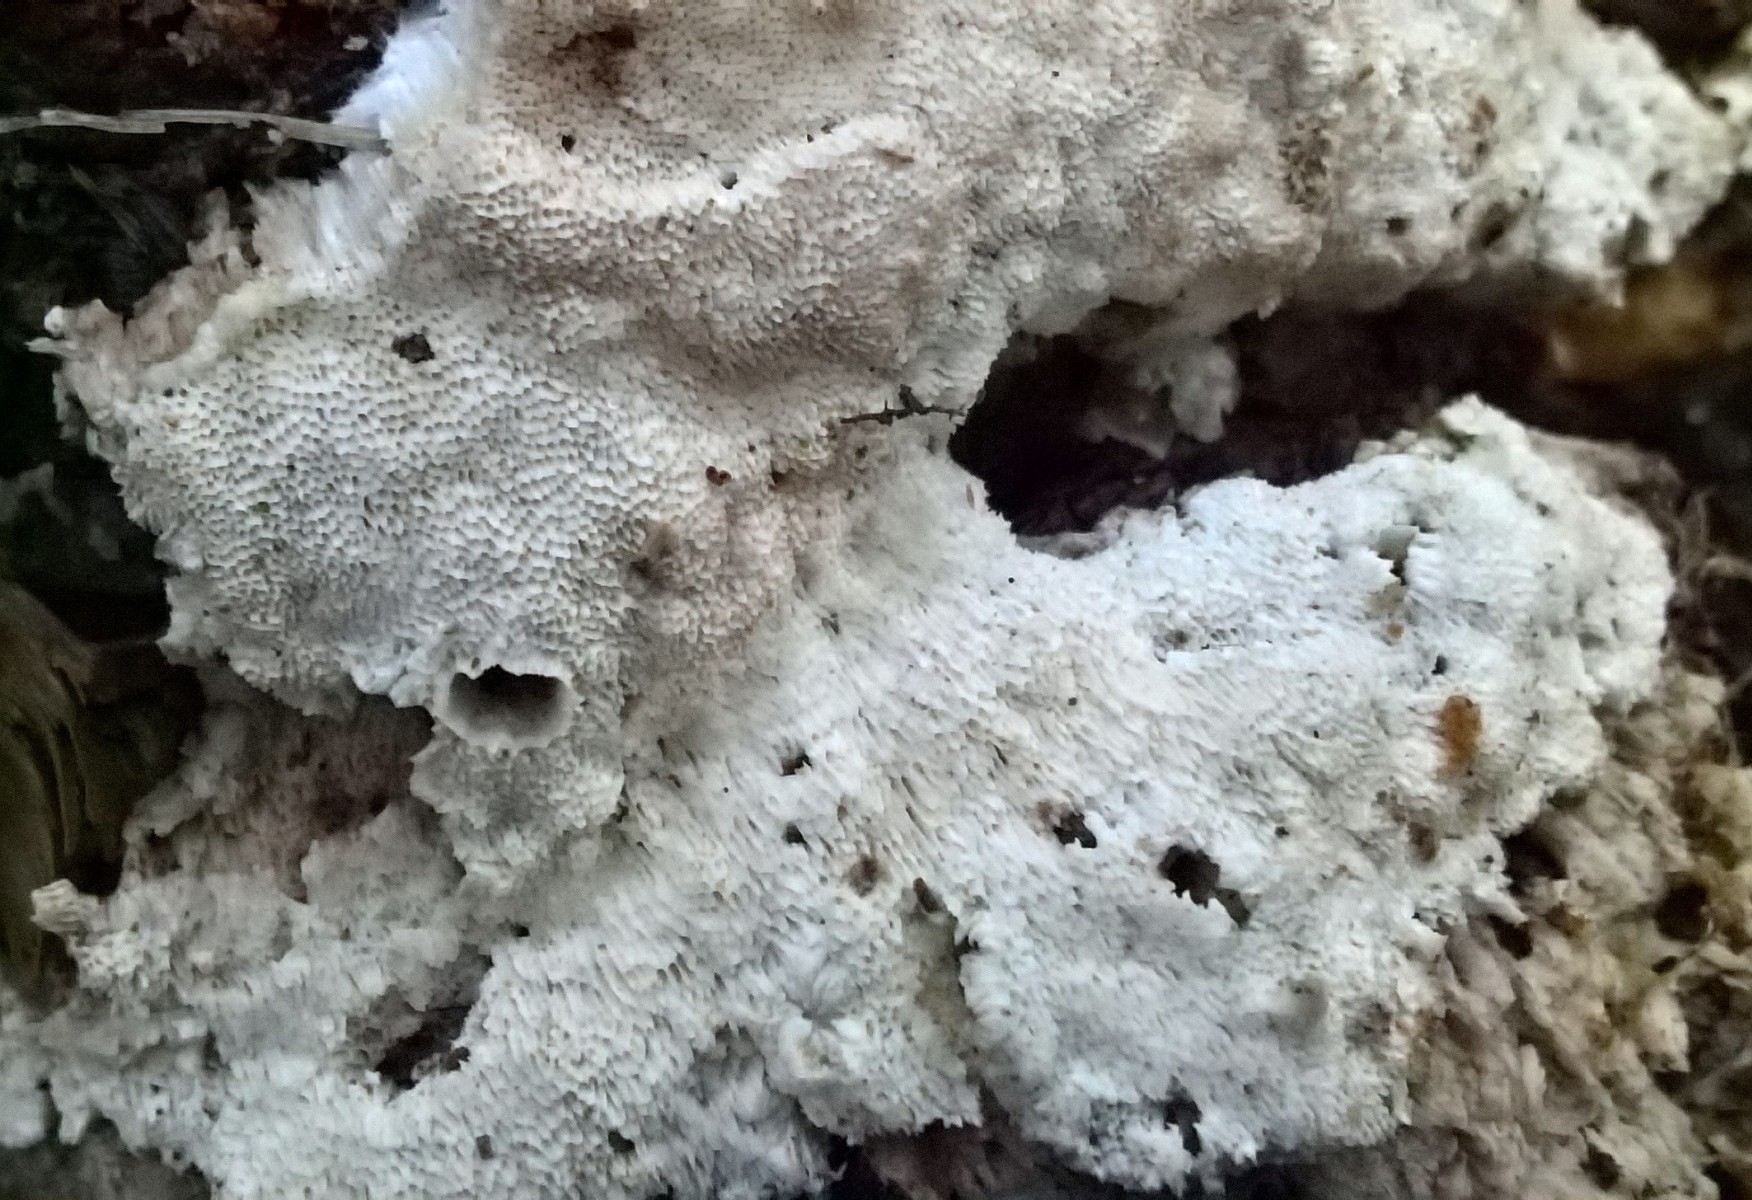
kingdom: Fungi
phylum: Basidiomycota
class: Agaricomycetes
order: Polyporales
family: Gelatoporiaceae
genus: Cinereomyces
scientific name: Cinereomyces lindbladii
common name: almindelig gråporesvamp
